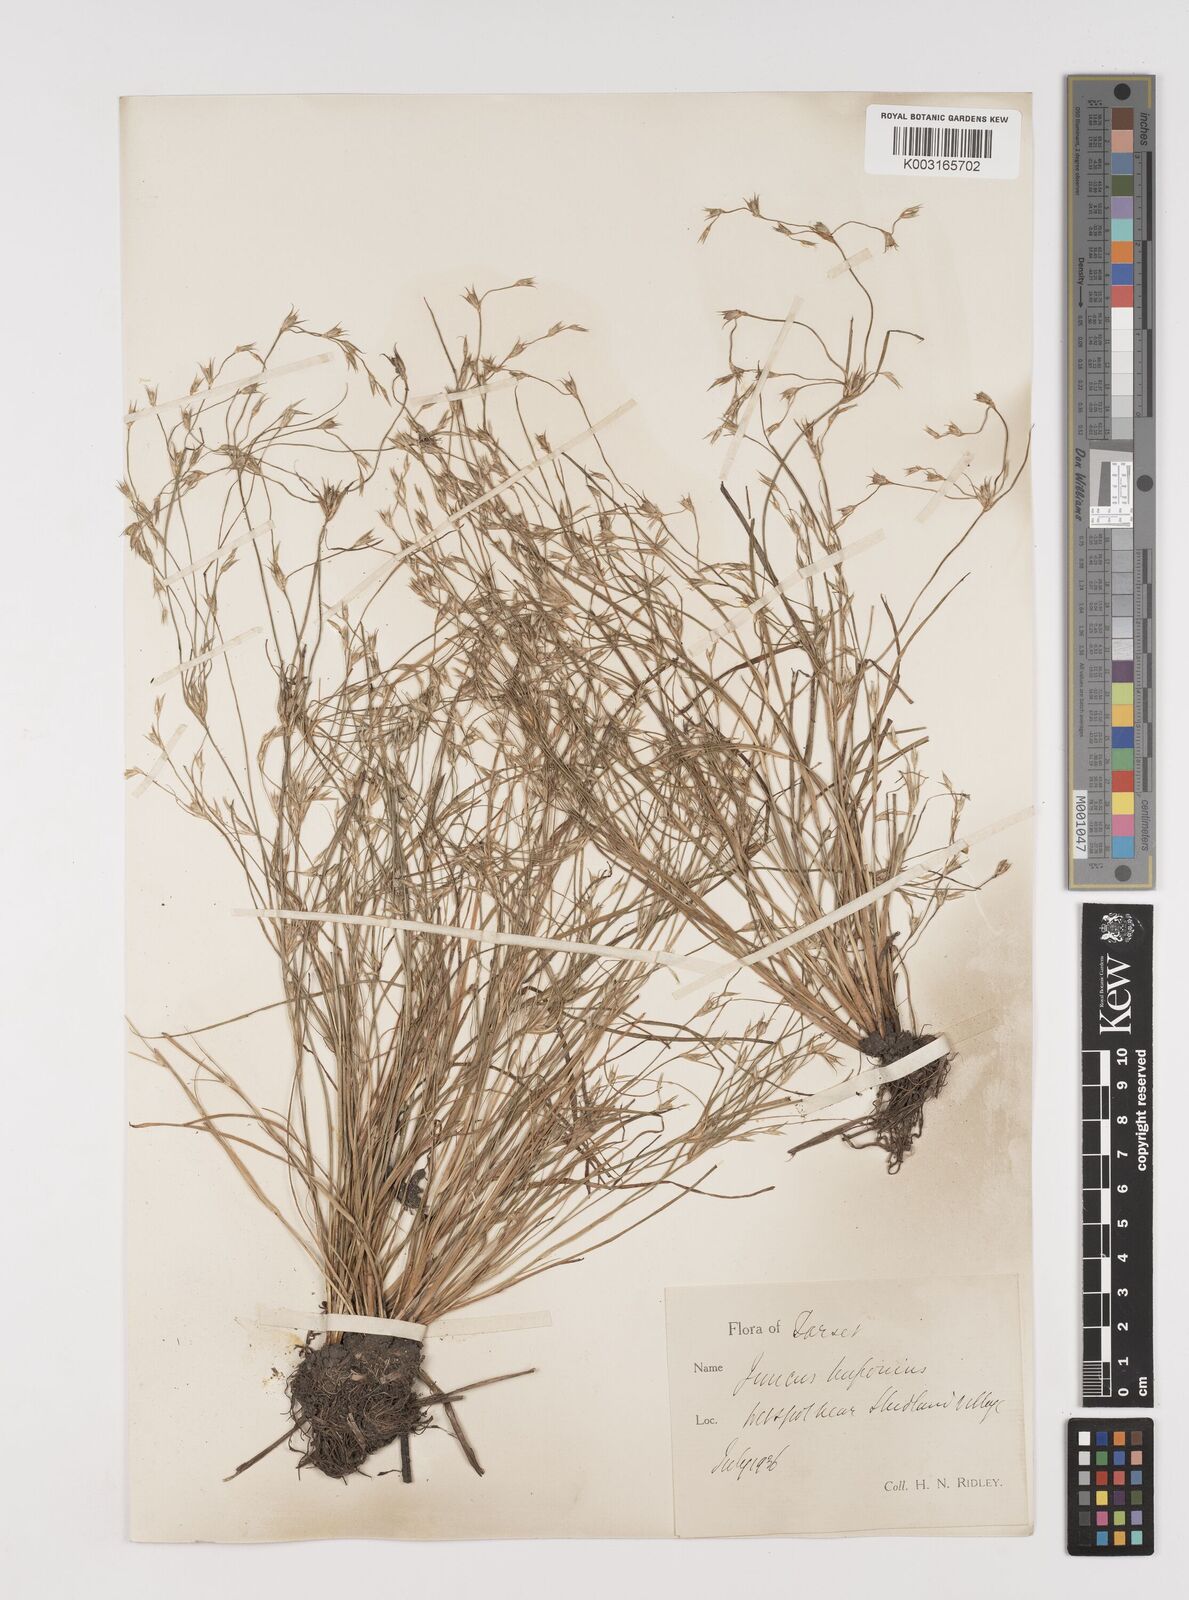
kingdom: Plantae
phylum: Tracheophyta
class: Liliopsida
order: Poales
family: Juncaceae
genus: Juncus
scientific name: Juncus bufonius
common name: Toad rush
